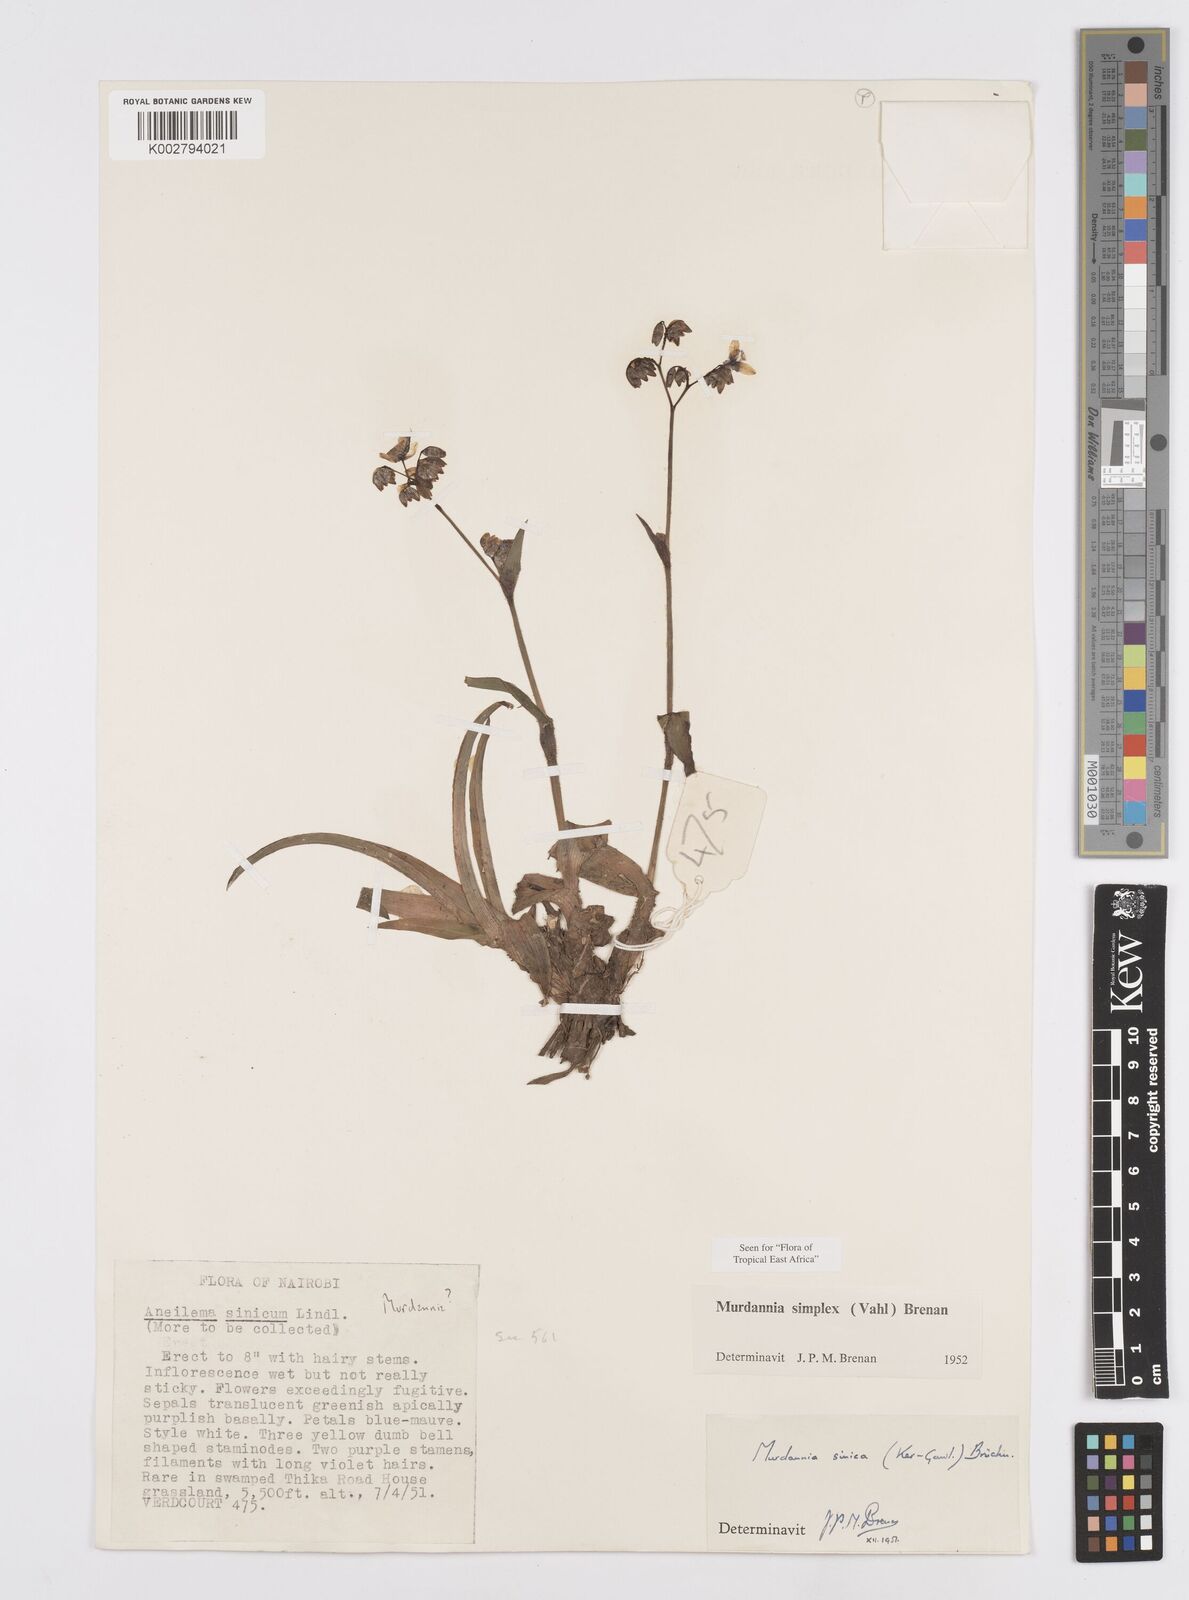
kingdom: Plantae
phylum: Tracheophyta
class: Liliopsida
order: Commelinales
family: Commelinaceae
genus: Murdannia
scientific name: Murdannia simplex
